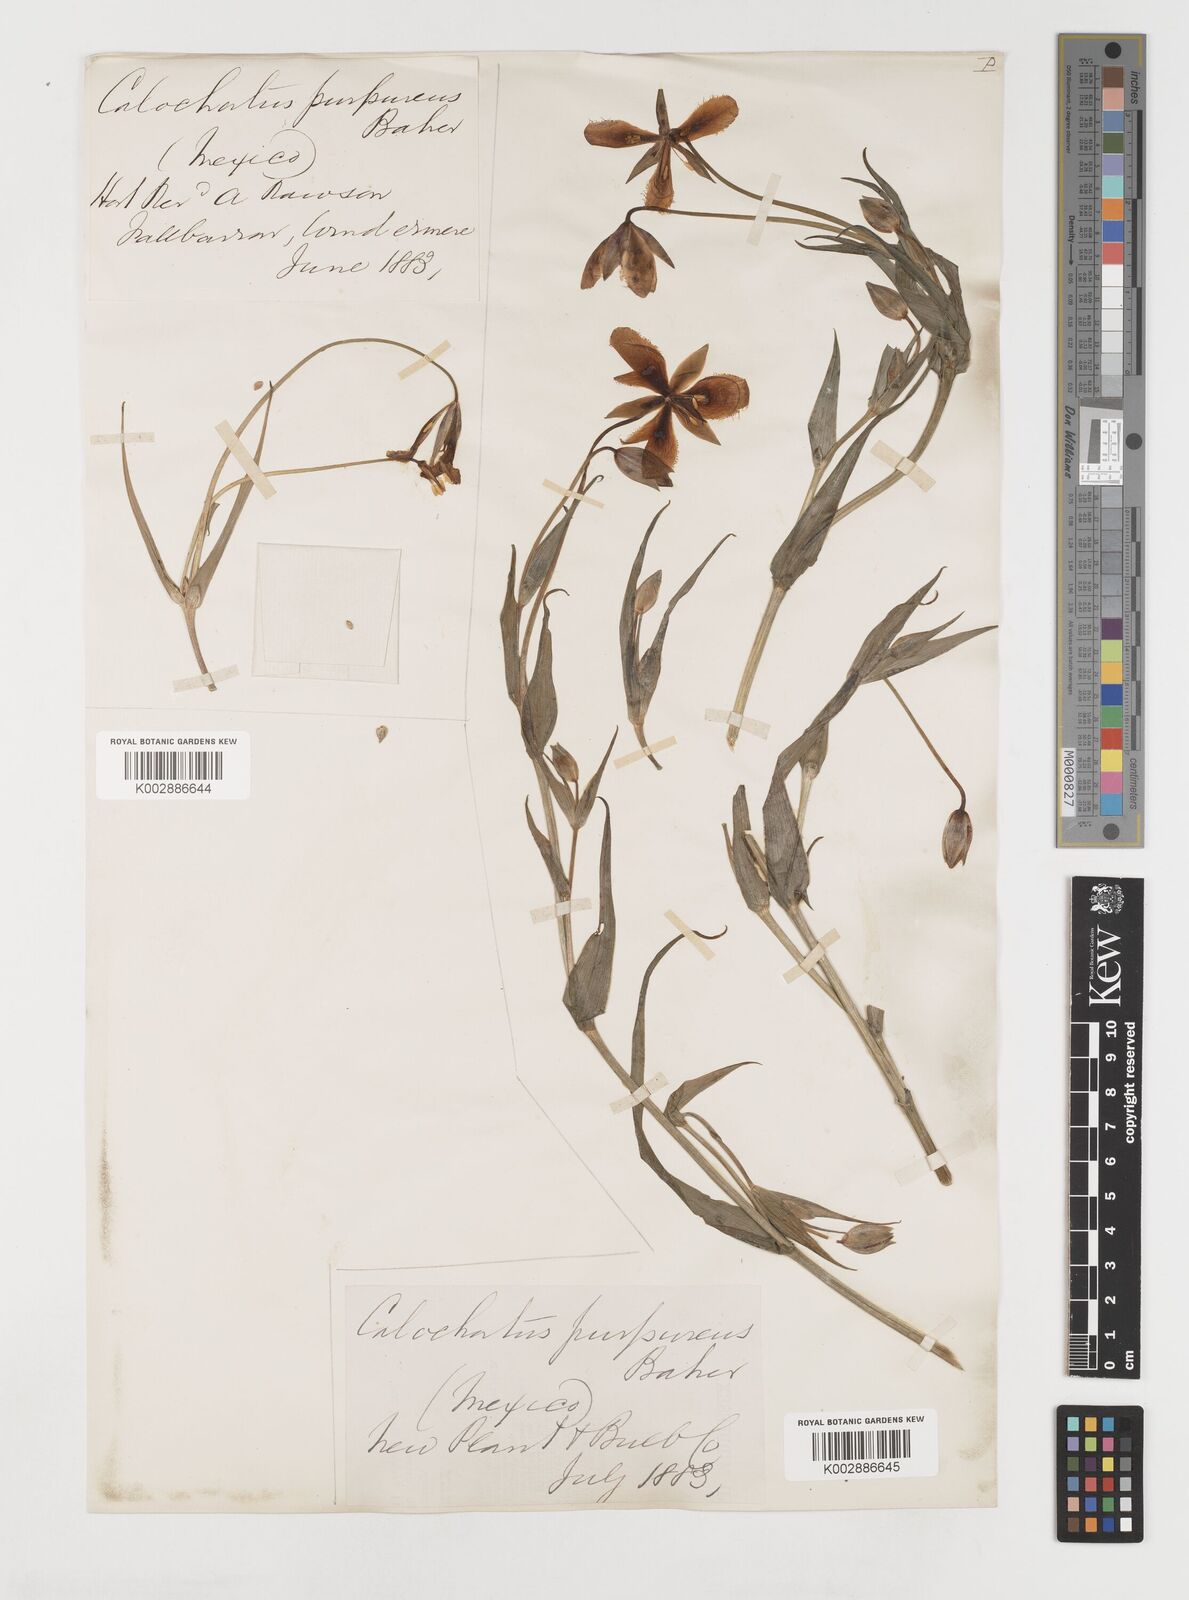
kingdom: Plantae
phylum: Tracheophyta
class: Liliopsida
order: Liliales
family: Liliaceae
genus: Calochortus
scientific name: Calochortus purpureus
